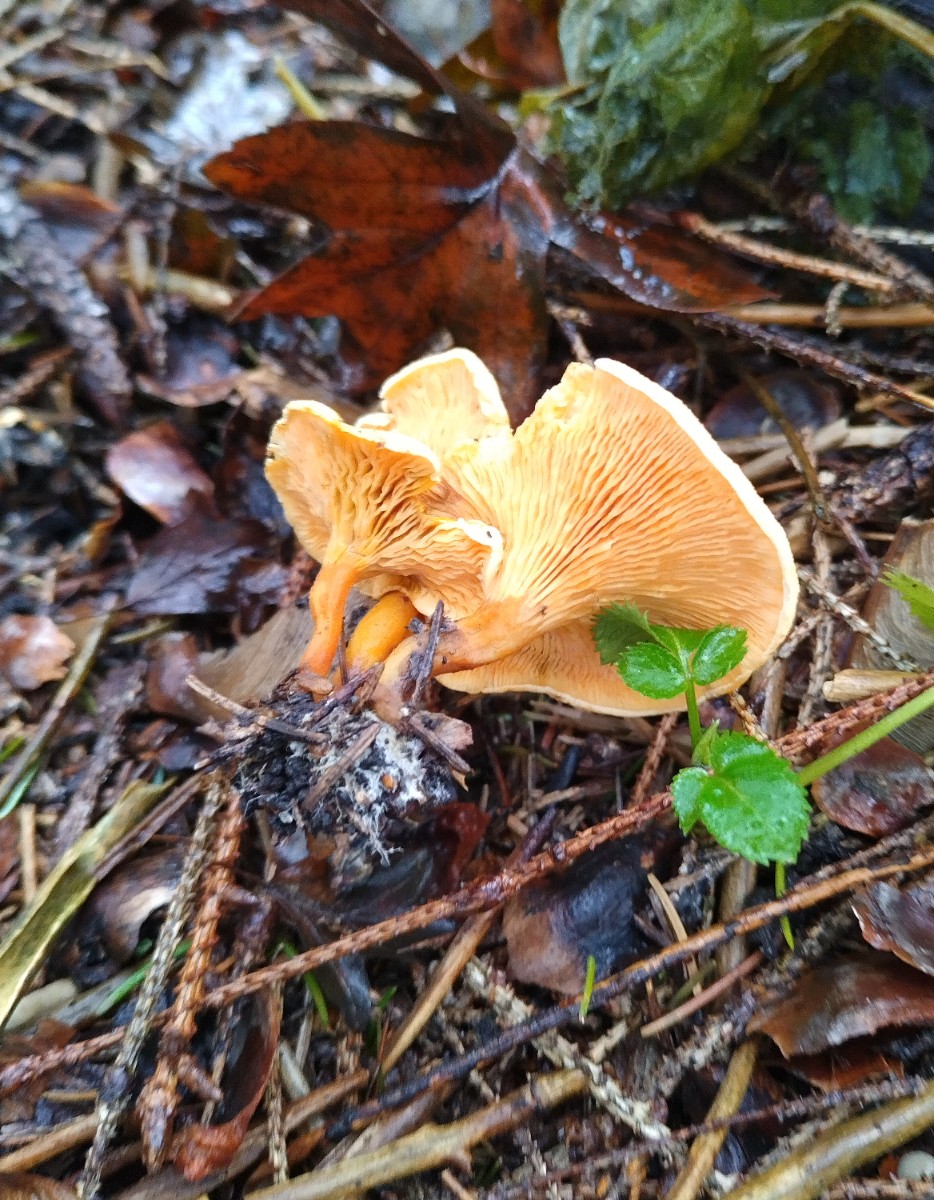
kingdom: Fungi
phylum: Basidiomycota
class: Agaricomycetes
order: Boletales
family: Hygrophoropsidaceae
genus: Hygrophoropsis
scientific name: Hygrophoropsis aurantiaca
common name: almindelig orangekantarel
